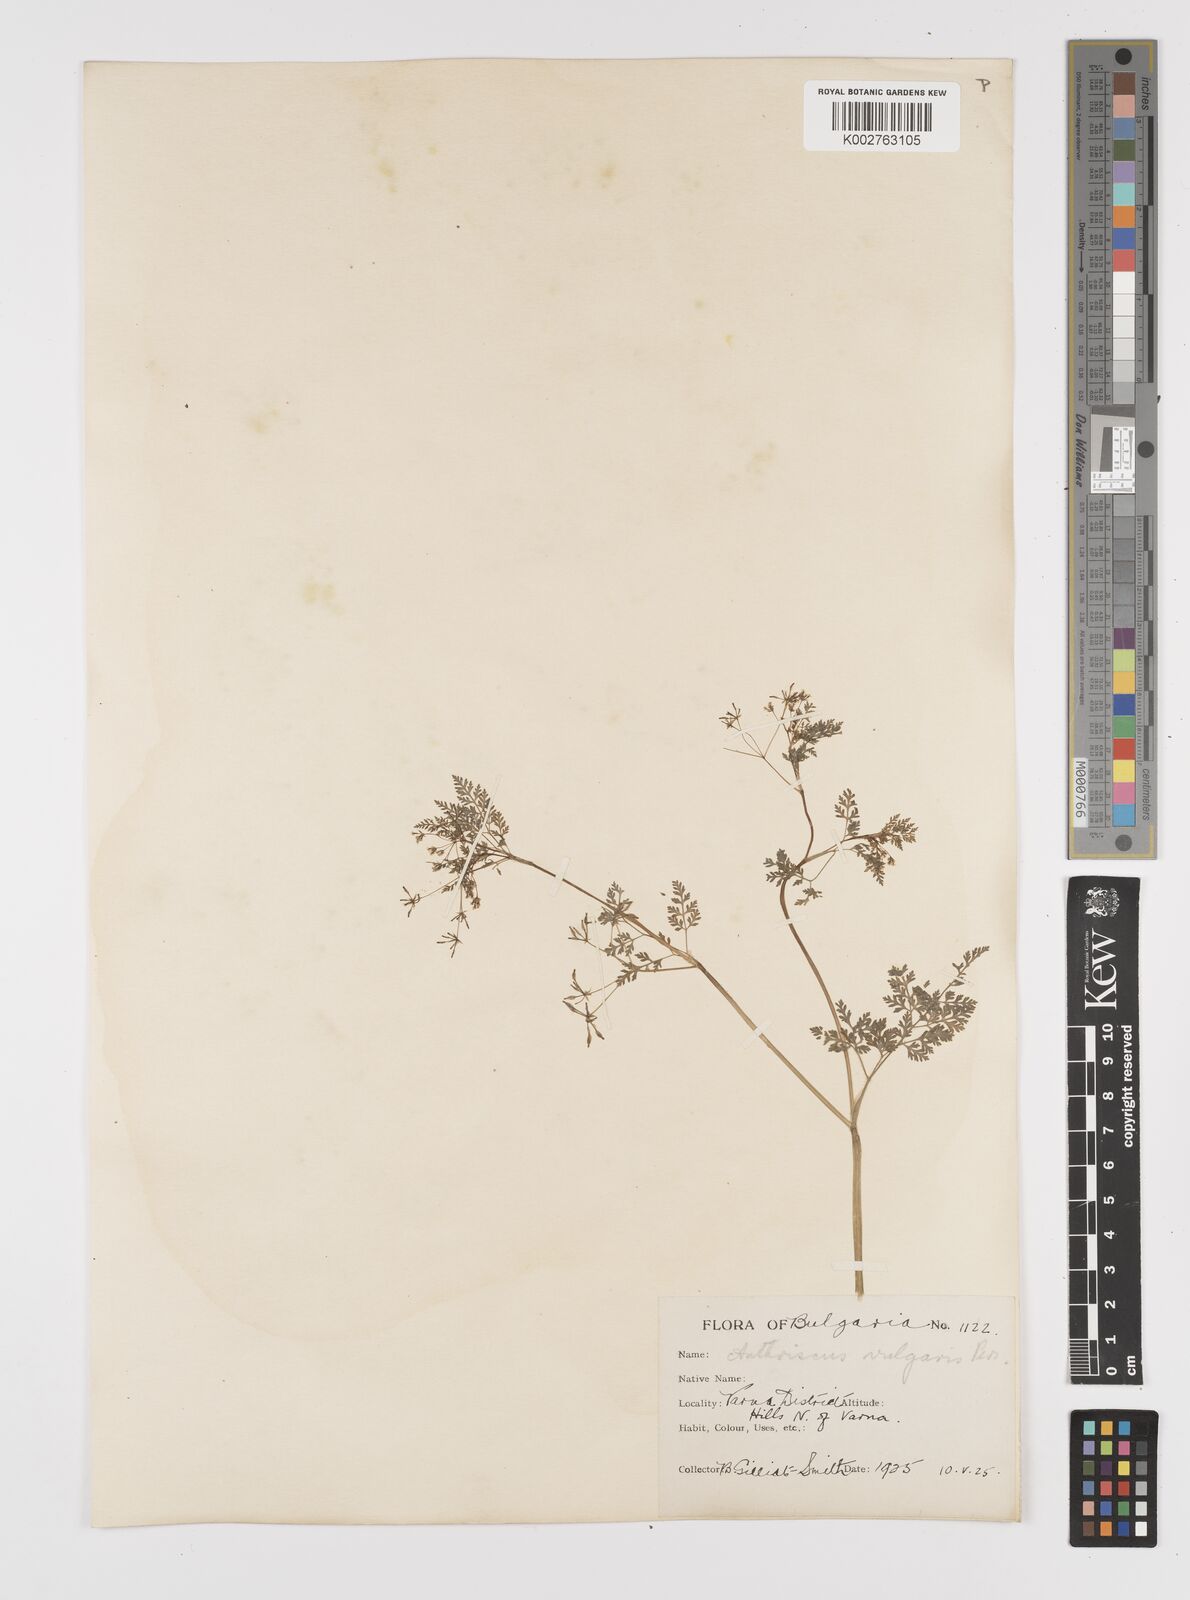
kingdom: Plantae
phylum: Tracheophyta
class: Magnoliopsida
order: Apiales
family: Apiaceae
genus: Anthriscus
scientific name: Anthriscus caucalis
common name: Bur chervil
